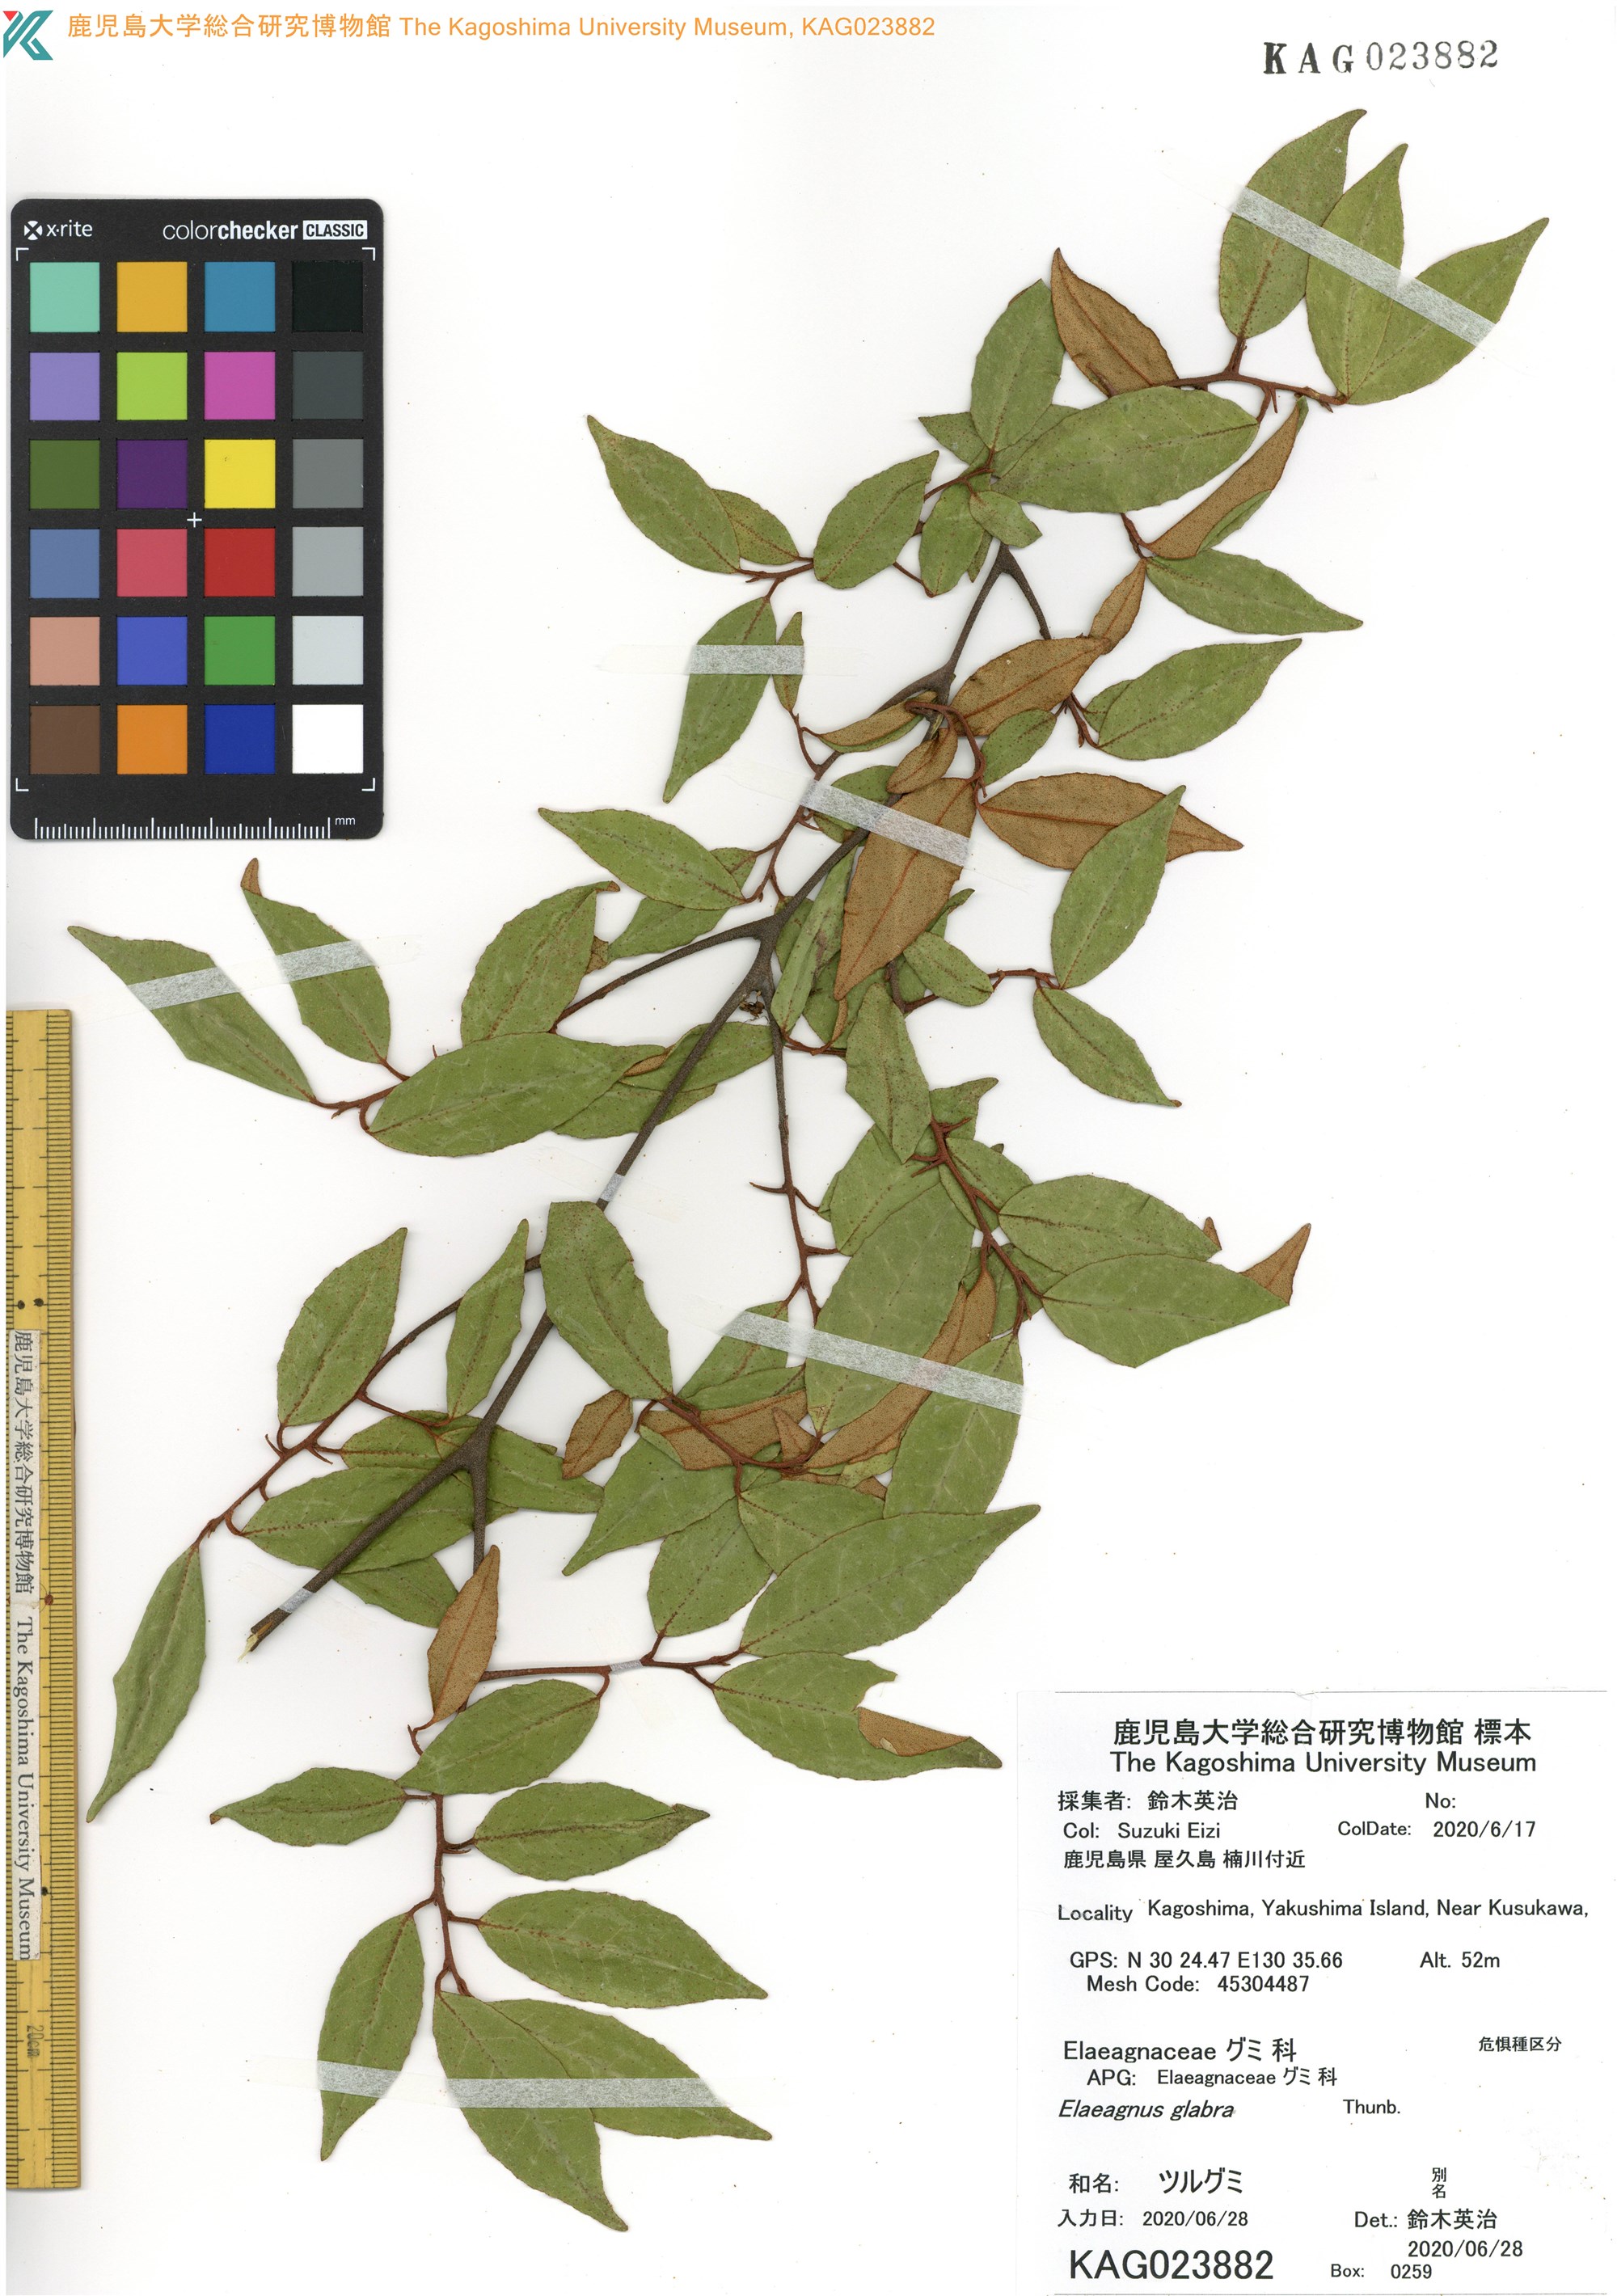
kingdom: Plantae
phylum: Tracheophyta
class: Magnoliopsida
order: Rosales
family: Elaeagnaceae
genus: Elaeagnus
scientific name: Elaeagnus glabra
